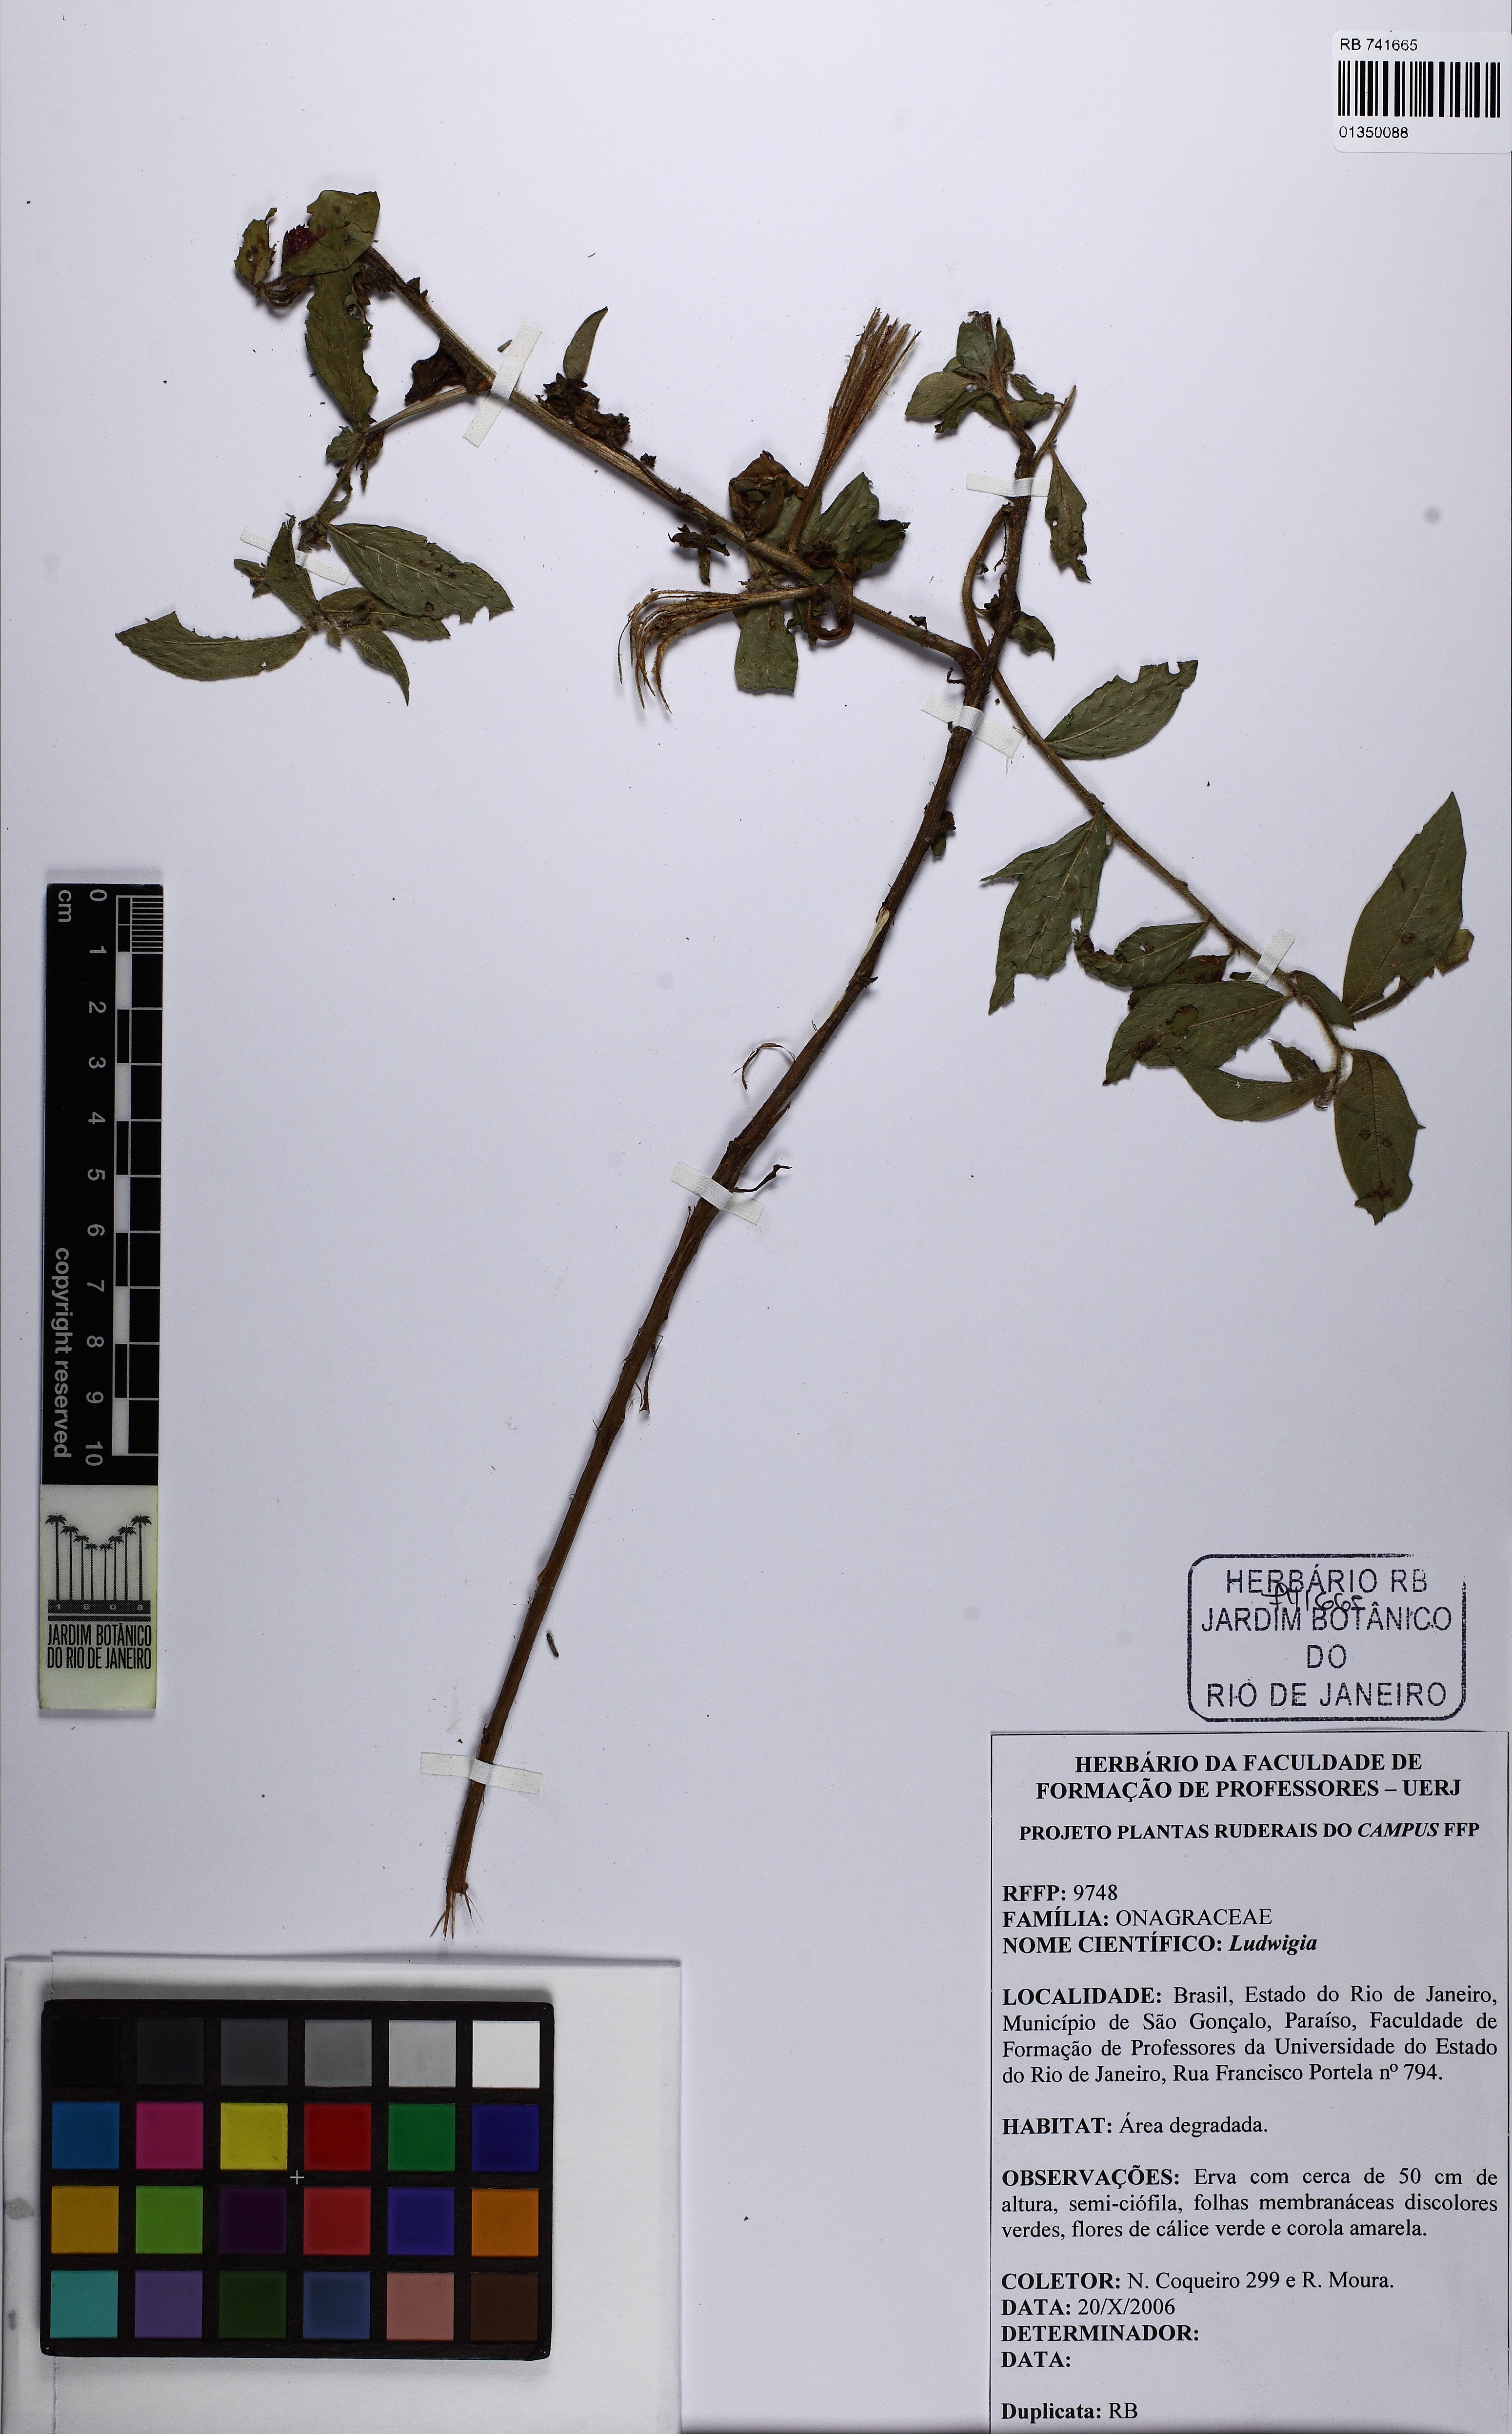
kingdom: Plantae
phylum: Tracheophyta
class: Magnoliopsida
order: Myrtales
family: Onagraceae
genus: Ludwigia
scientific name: Ludwigia
